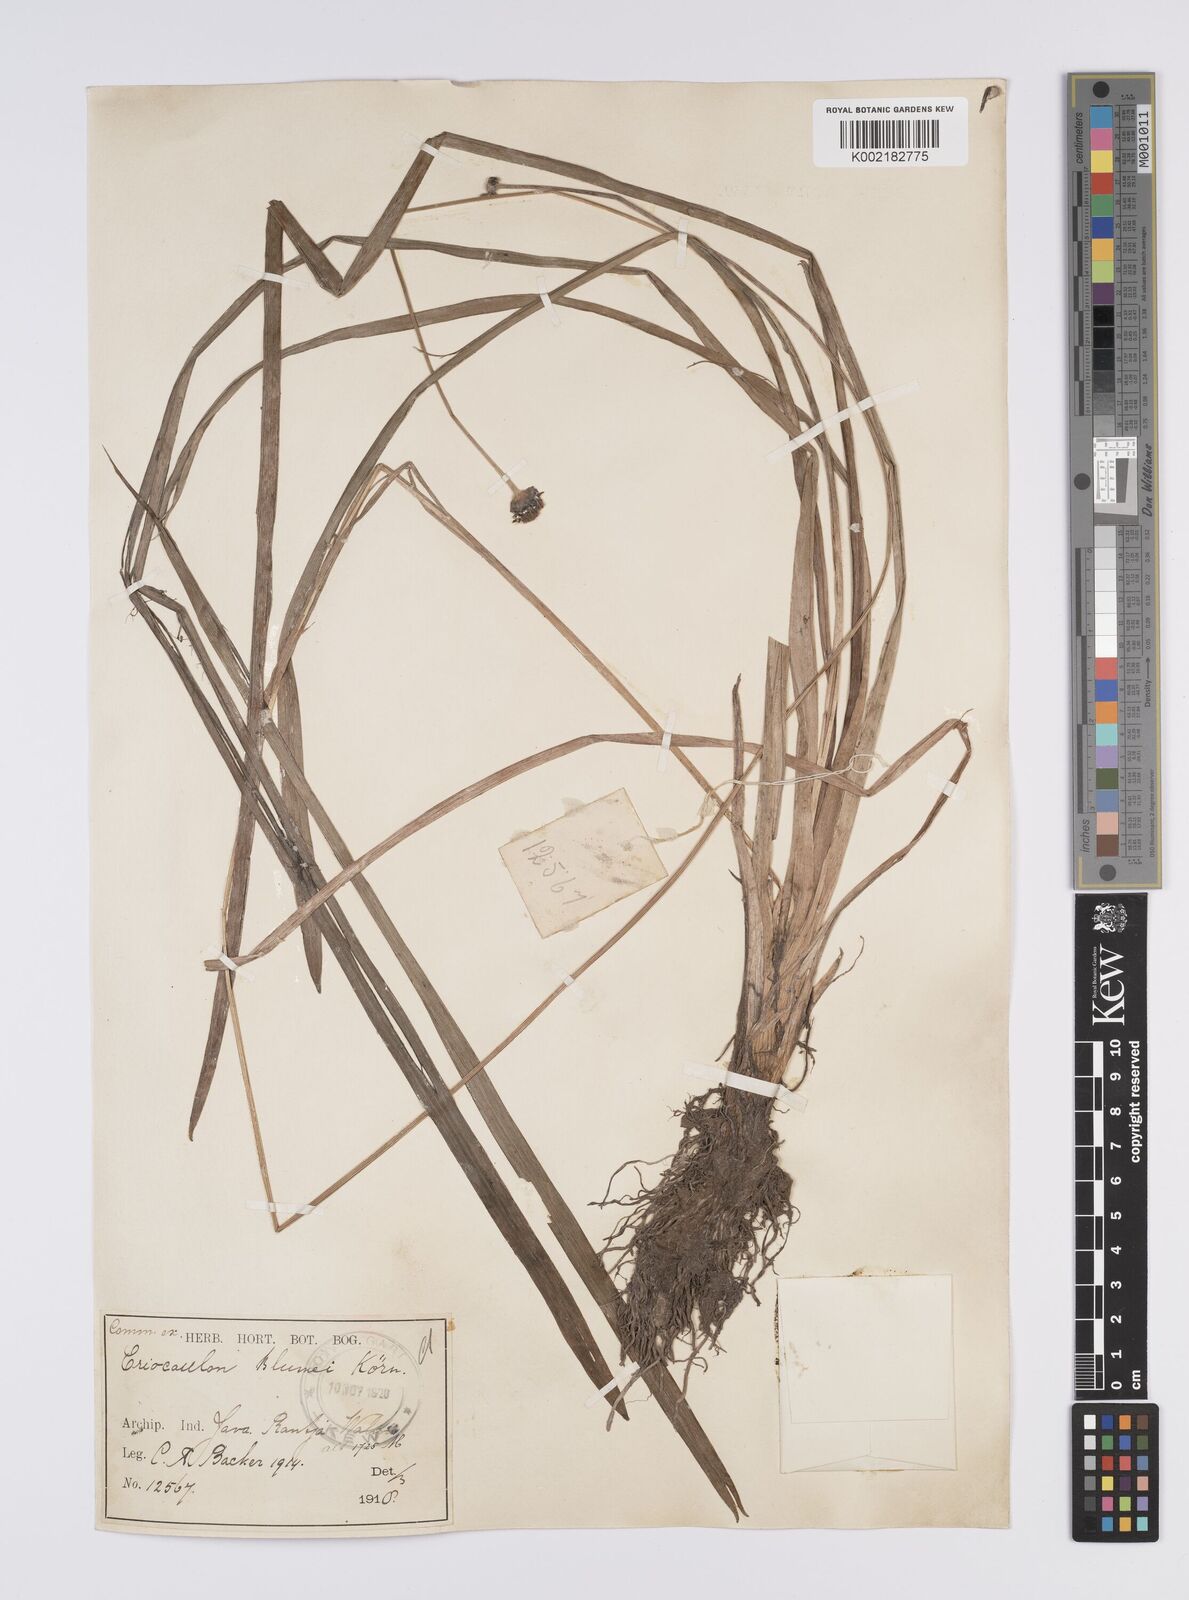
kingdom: Plantae
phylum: Tracheophyta
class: Liliopsida
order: Poales
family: Eriocaulaceae
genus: Eriocaulon
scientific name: Eriocaulon brownianum
